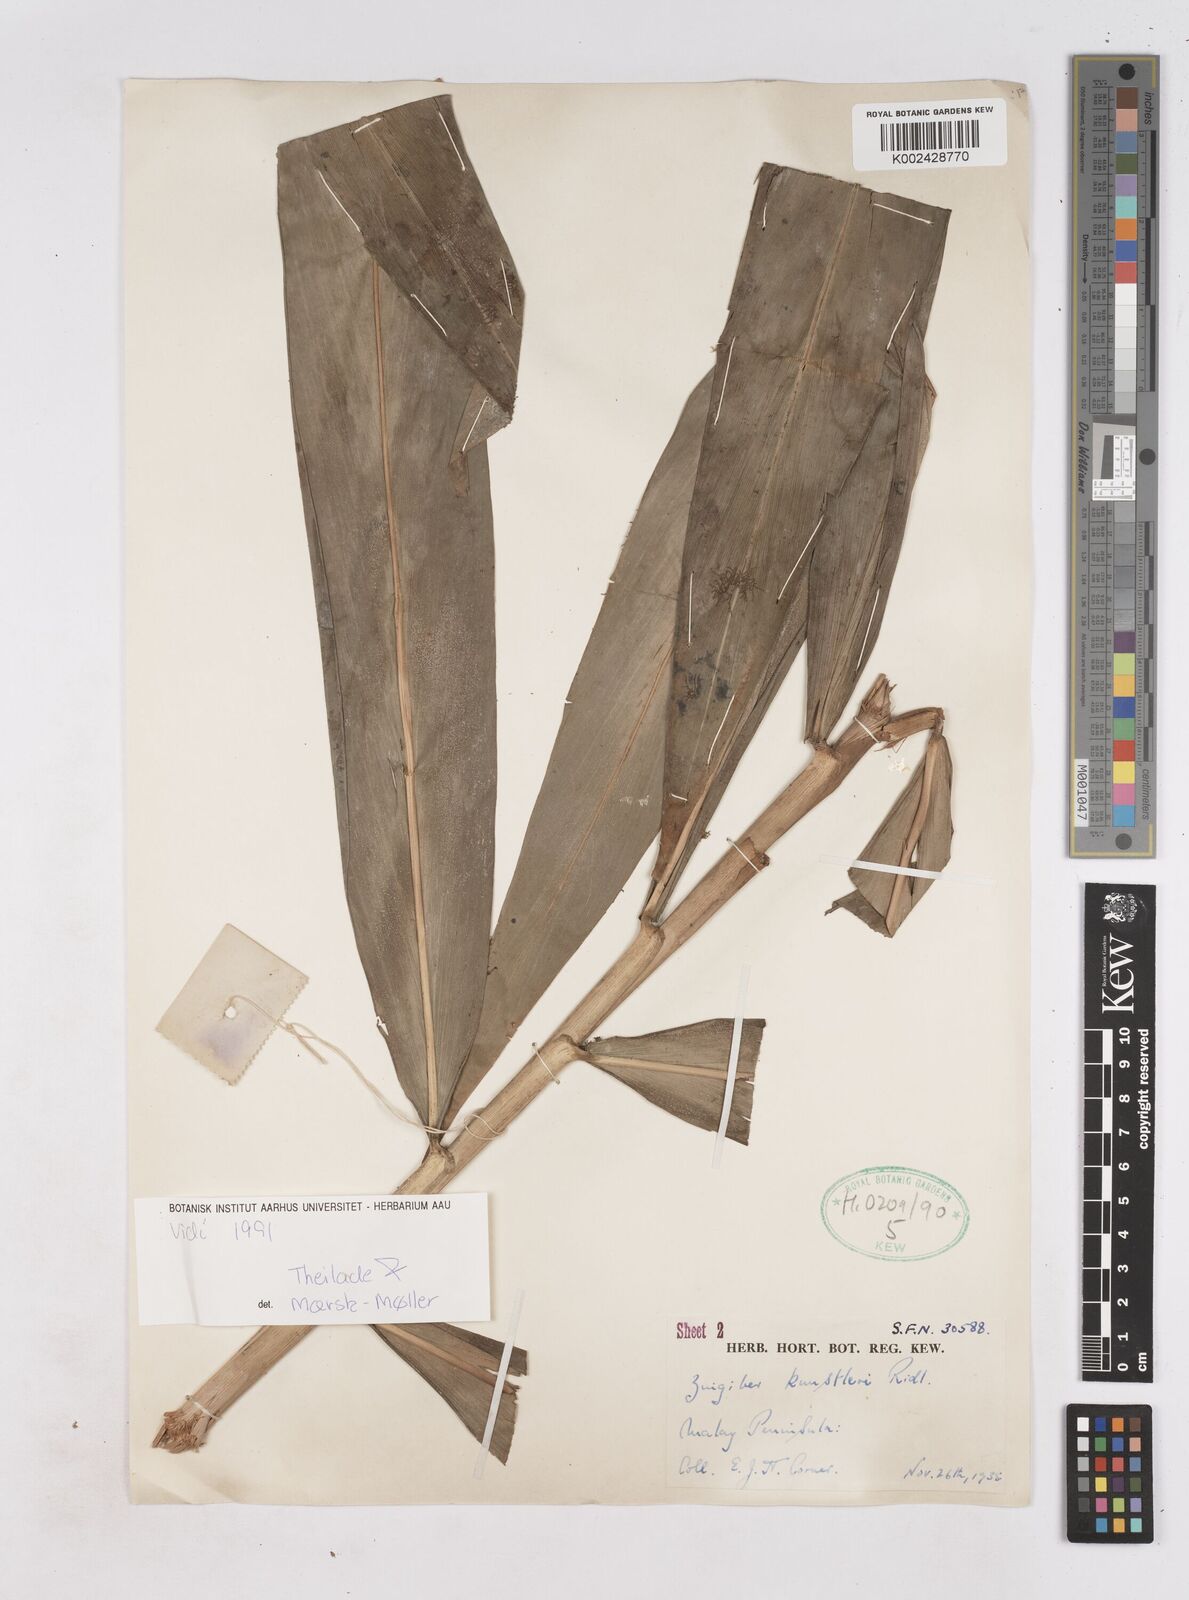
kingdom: Plantae
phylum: Tracheophyta
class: Liliopsida
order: Zingiberales
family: Zingiberaceae
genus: Zingiber
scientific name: Zingiber kunstleri
